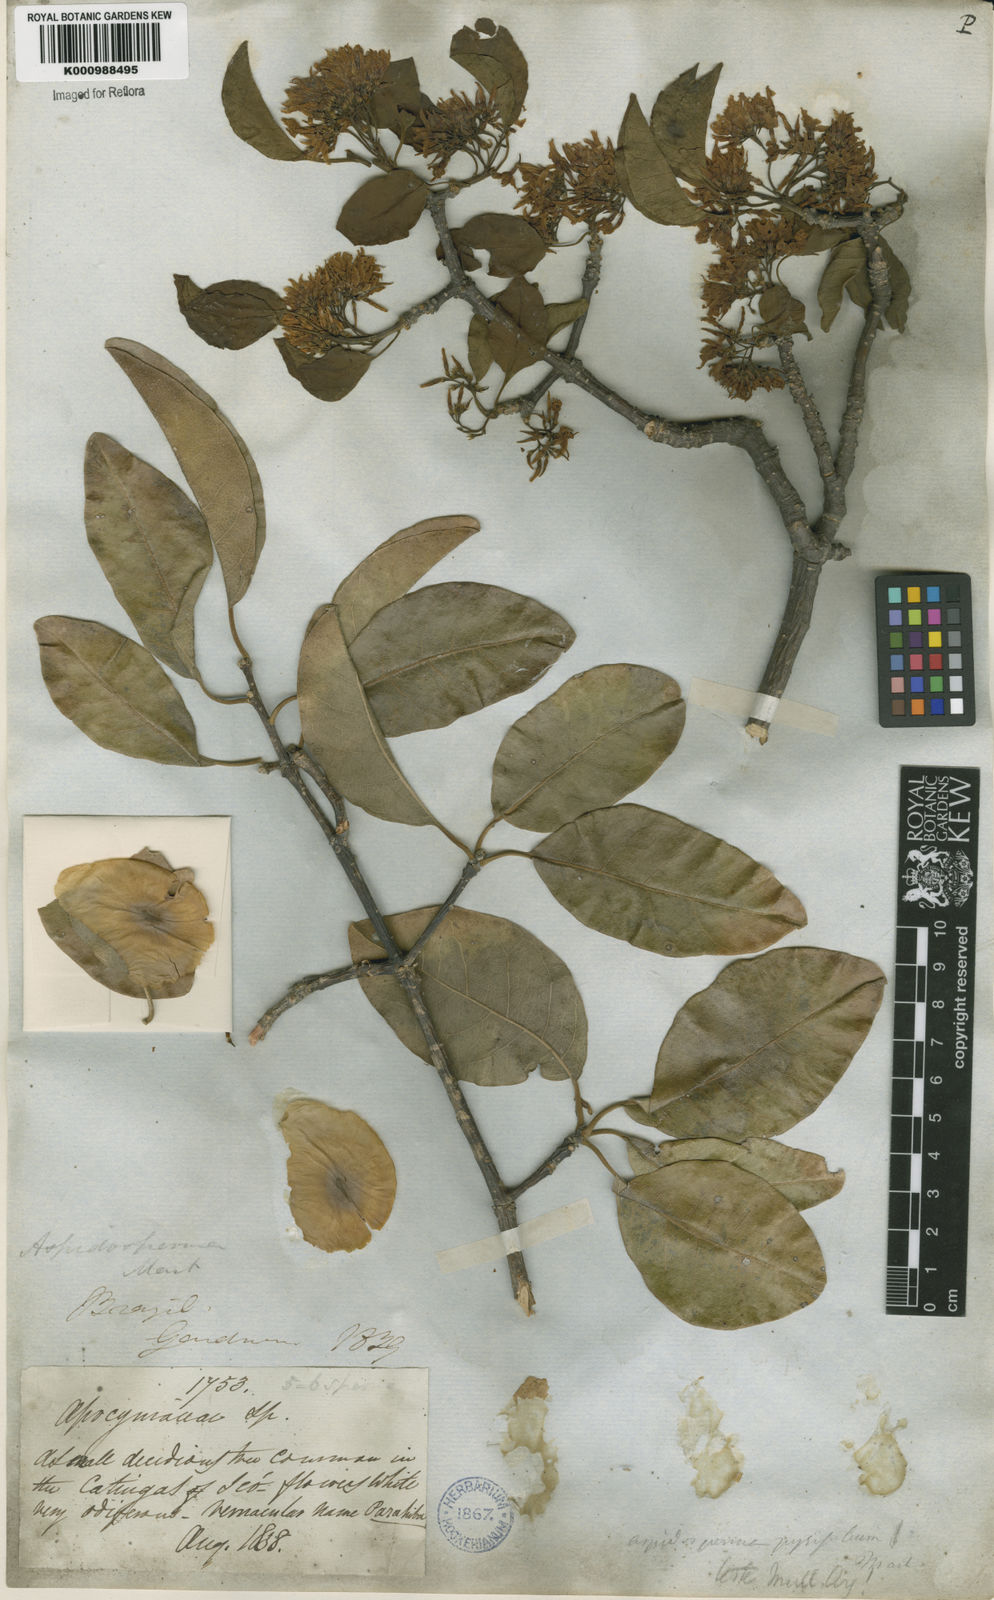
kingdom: Plantae
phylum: Tracheophyta
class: Magnoliopsida
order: Gentianales
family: Apocynaceae
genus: Aspidosperma
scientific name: Aspidosperma pyrifolium
